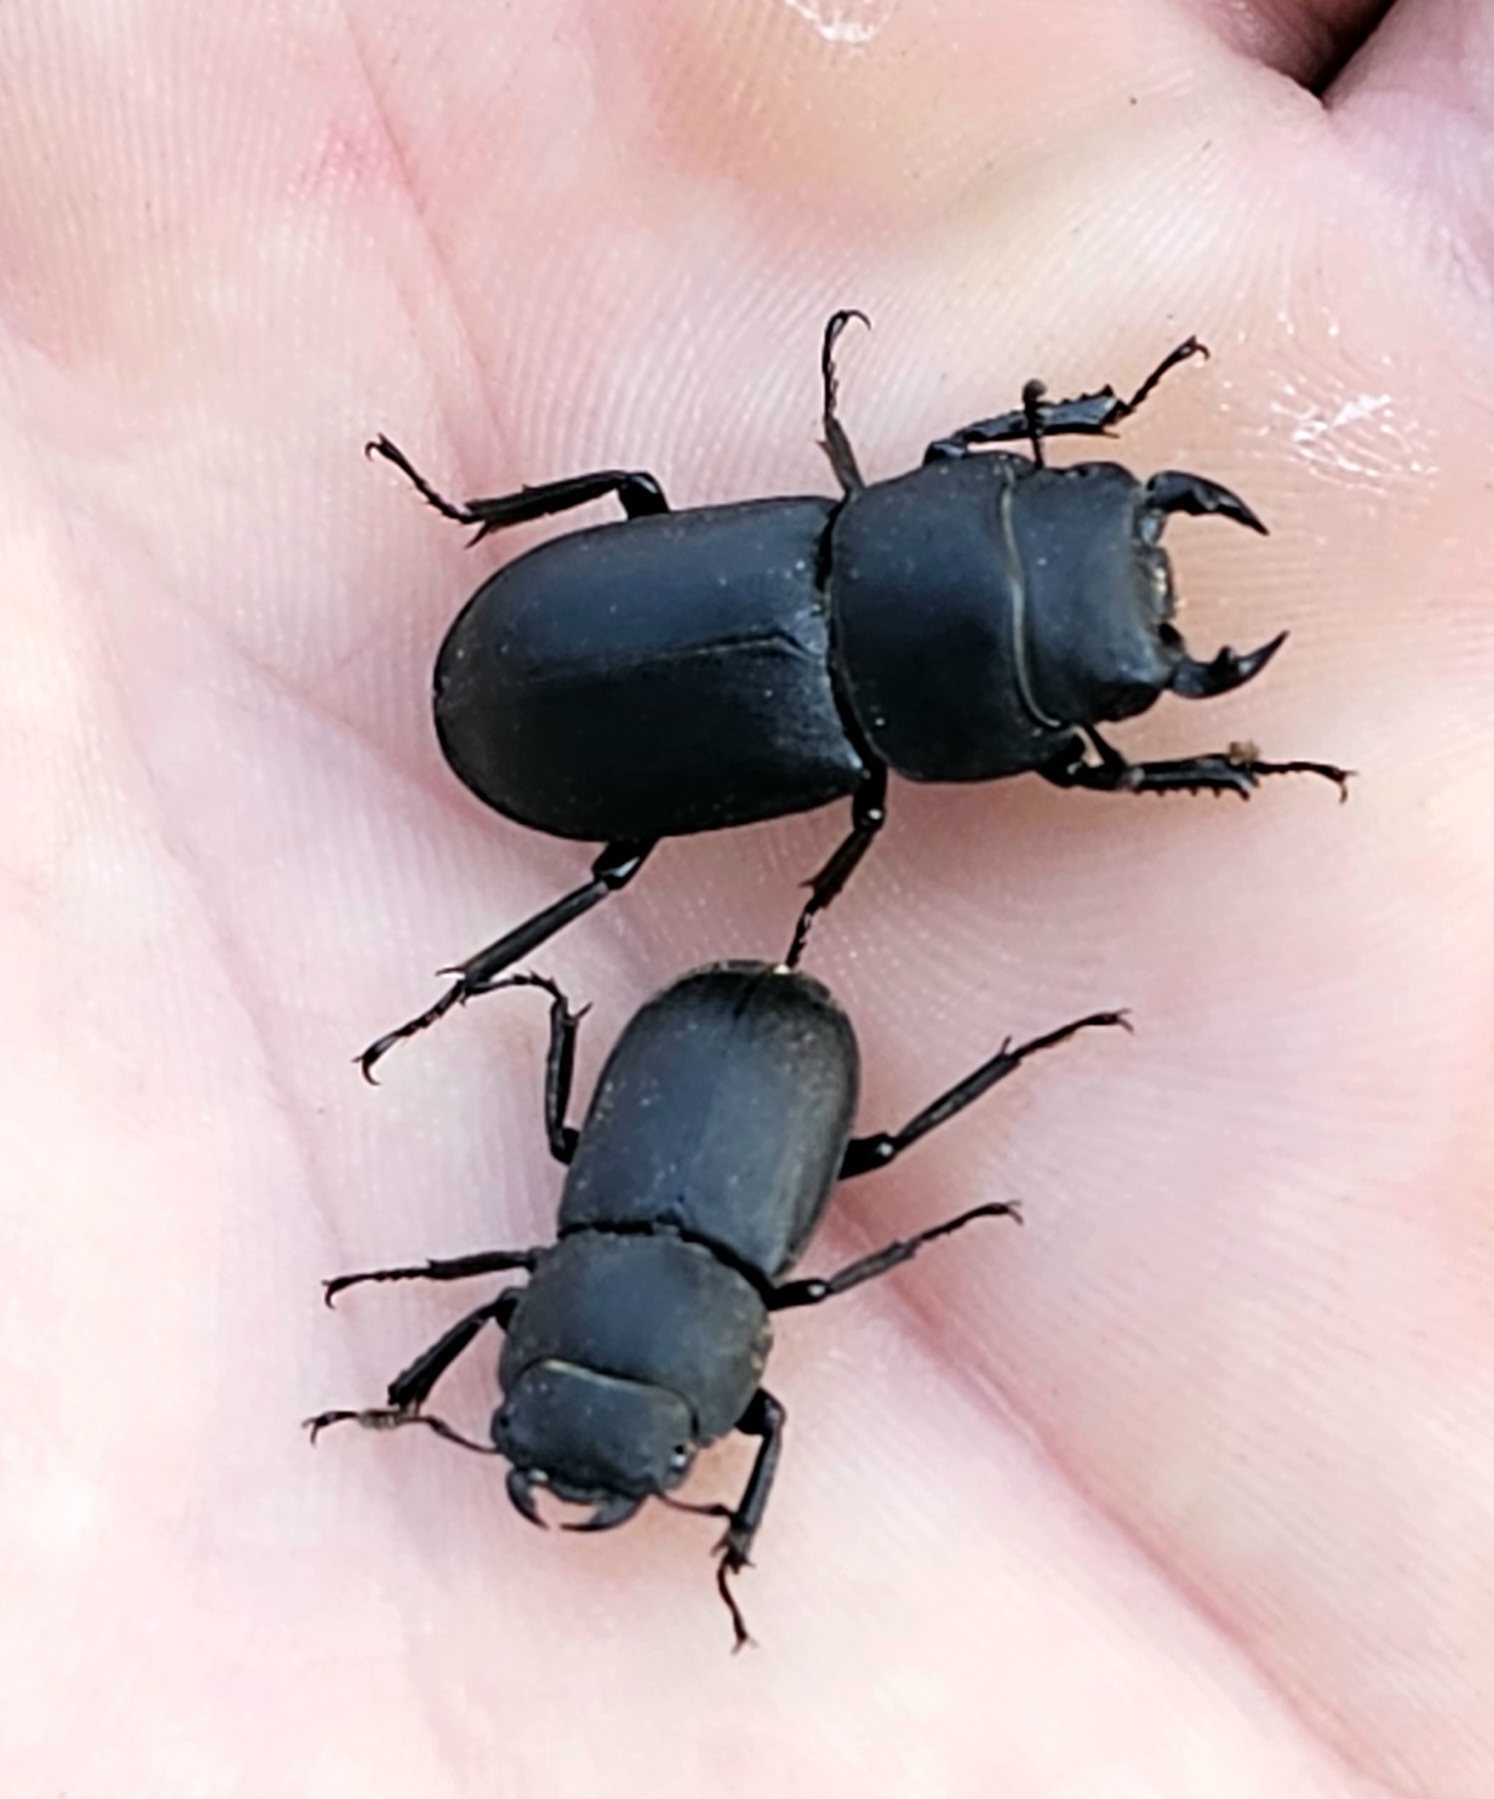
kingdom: Animalia
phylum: Arthropoda
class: Insecta
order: Coleoptera
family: Lucanidae
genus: Dorcus
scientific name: Dorcus parallelipipedus
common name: Bøghjort
